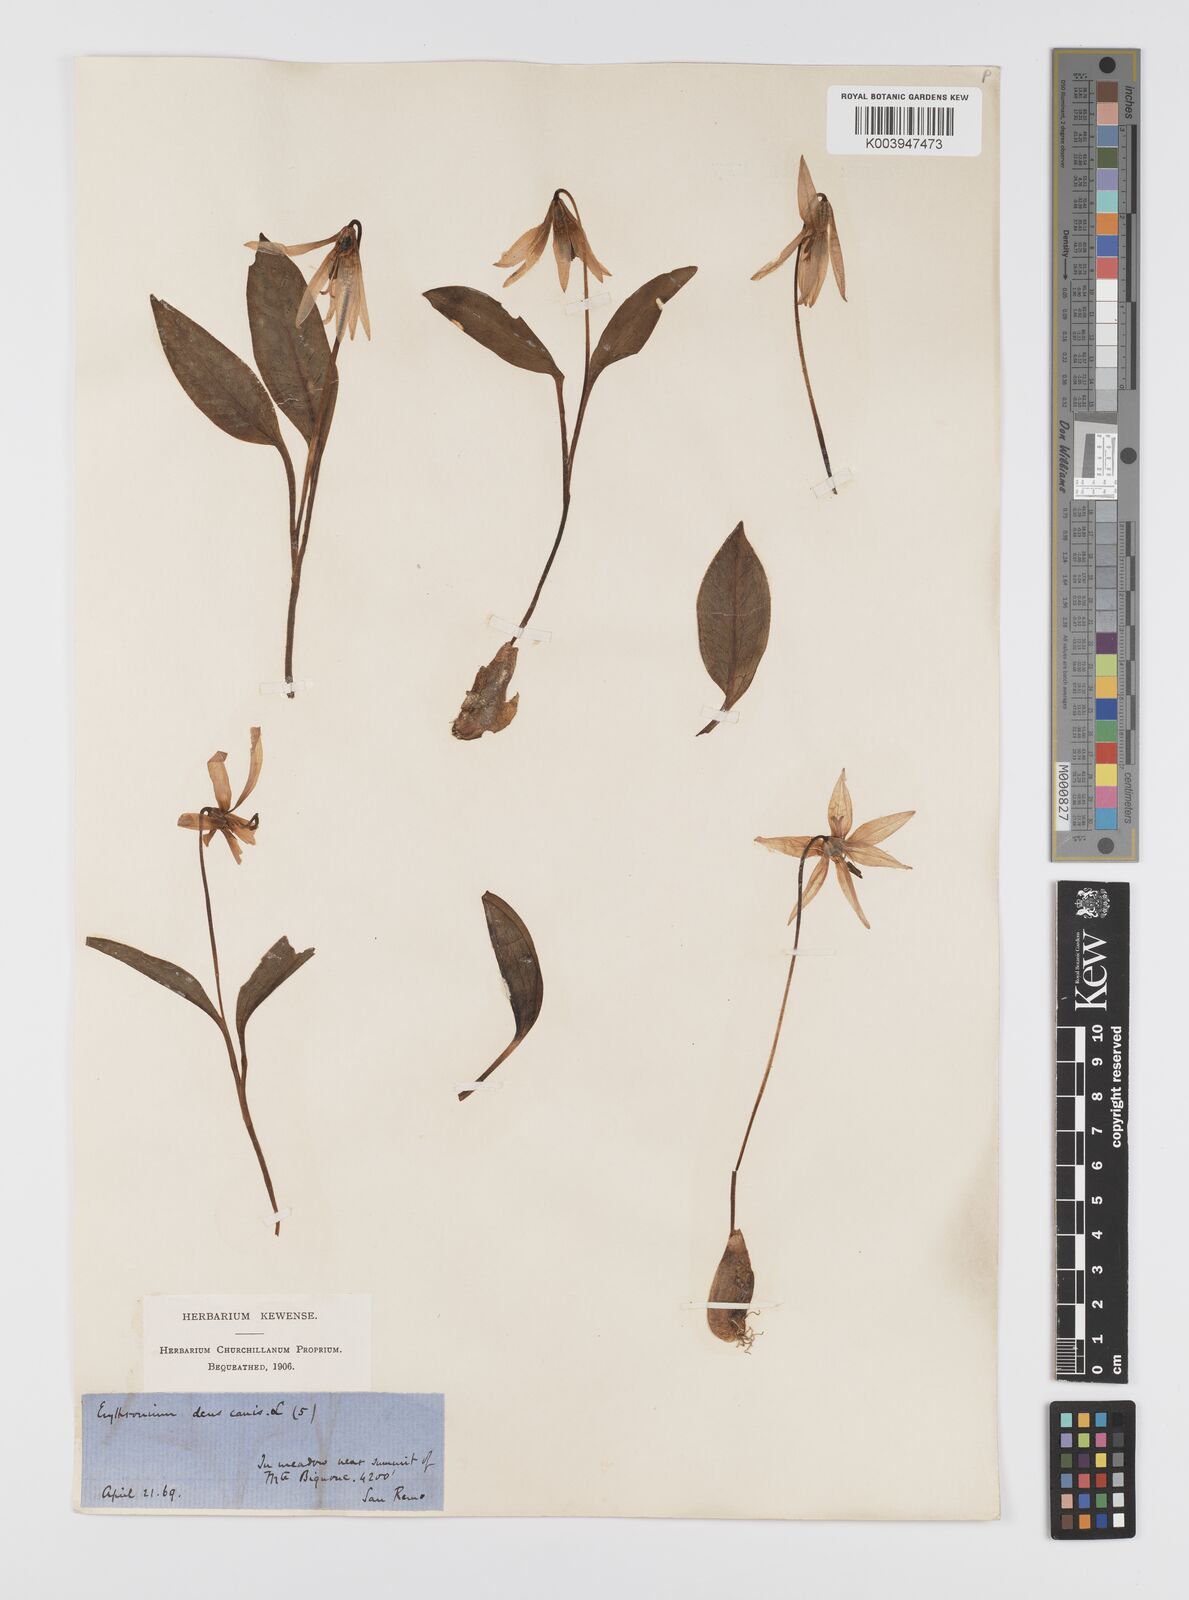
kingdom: Plantae
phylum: Tracheophyta
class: Liliopsida
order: Liliales
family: Liliaceae
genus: Erythronium
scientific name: Erythronium dens-canis
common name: Dog's-tooth-violet
